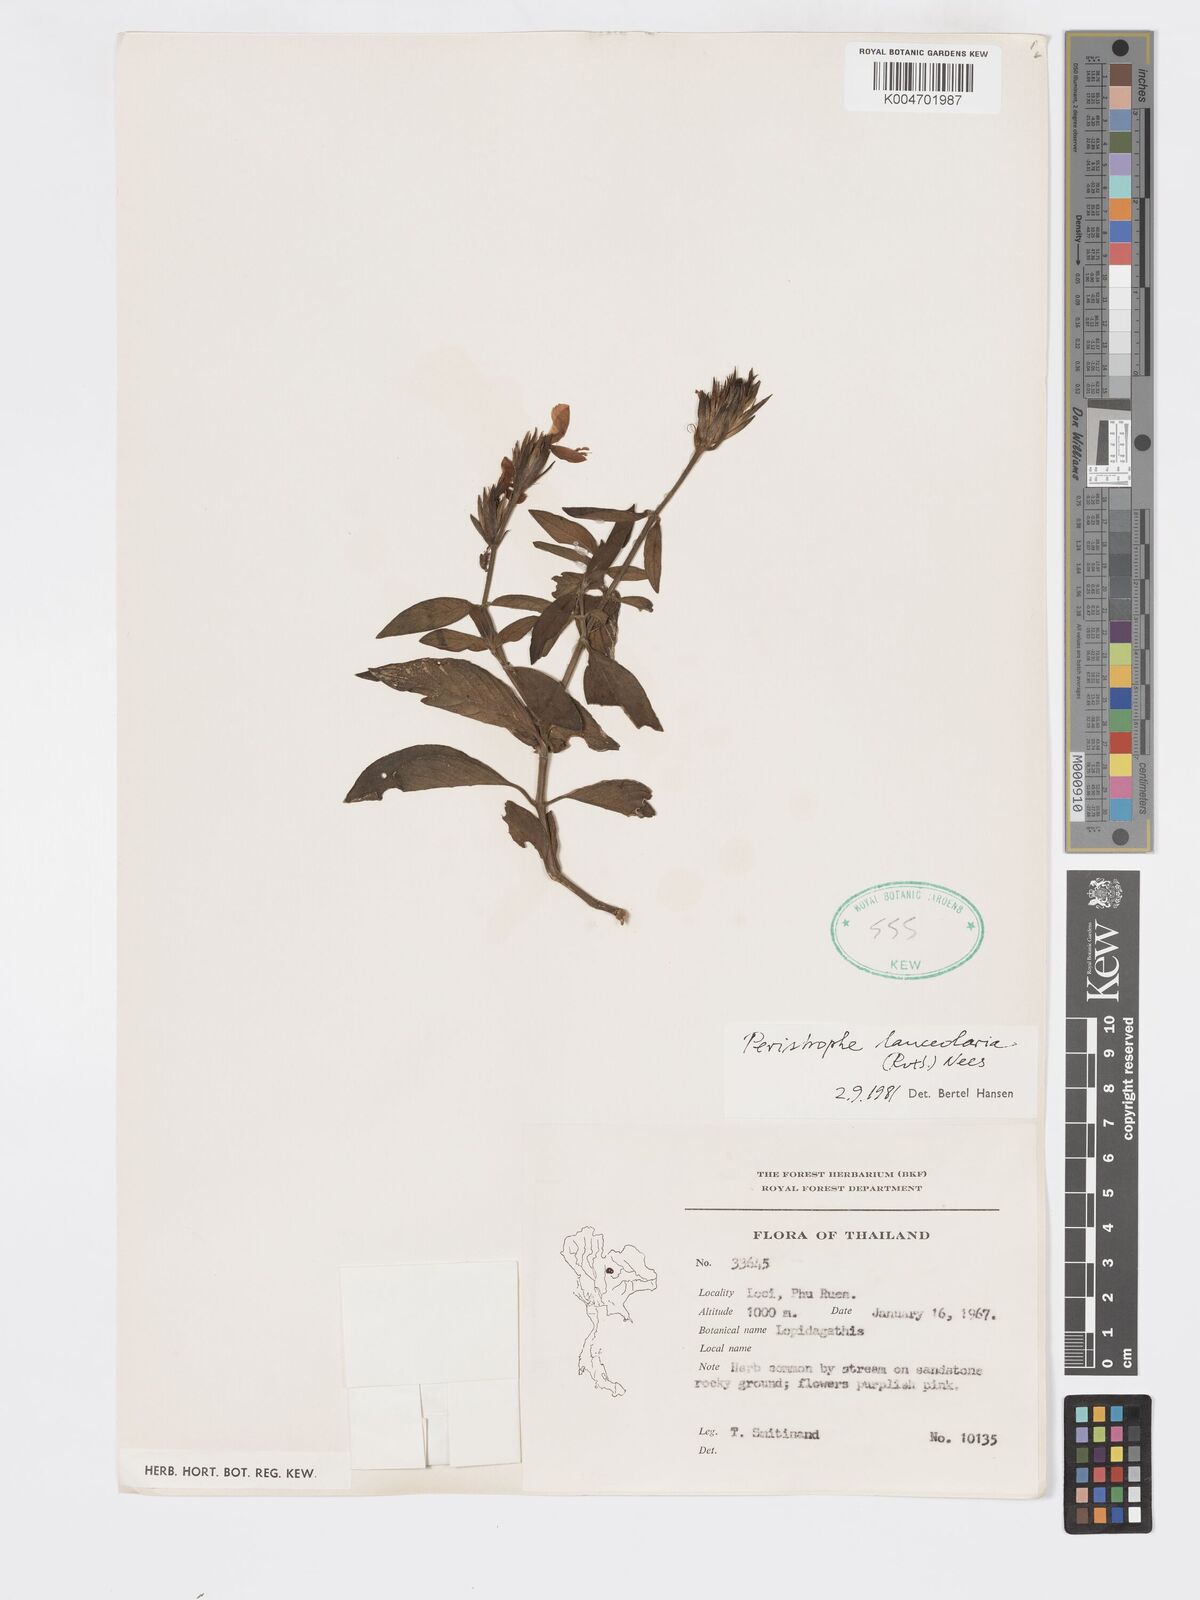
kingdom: Plantae
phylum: Tracheophyta
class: Magnoliopsida
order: Lamiales
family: Acanthaceae
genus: Dicliptera
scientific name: Dicliptera lanceolaria
